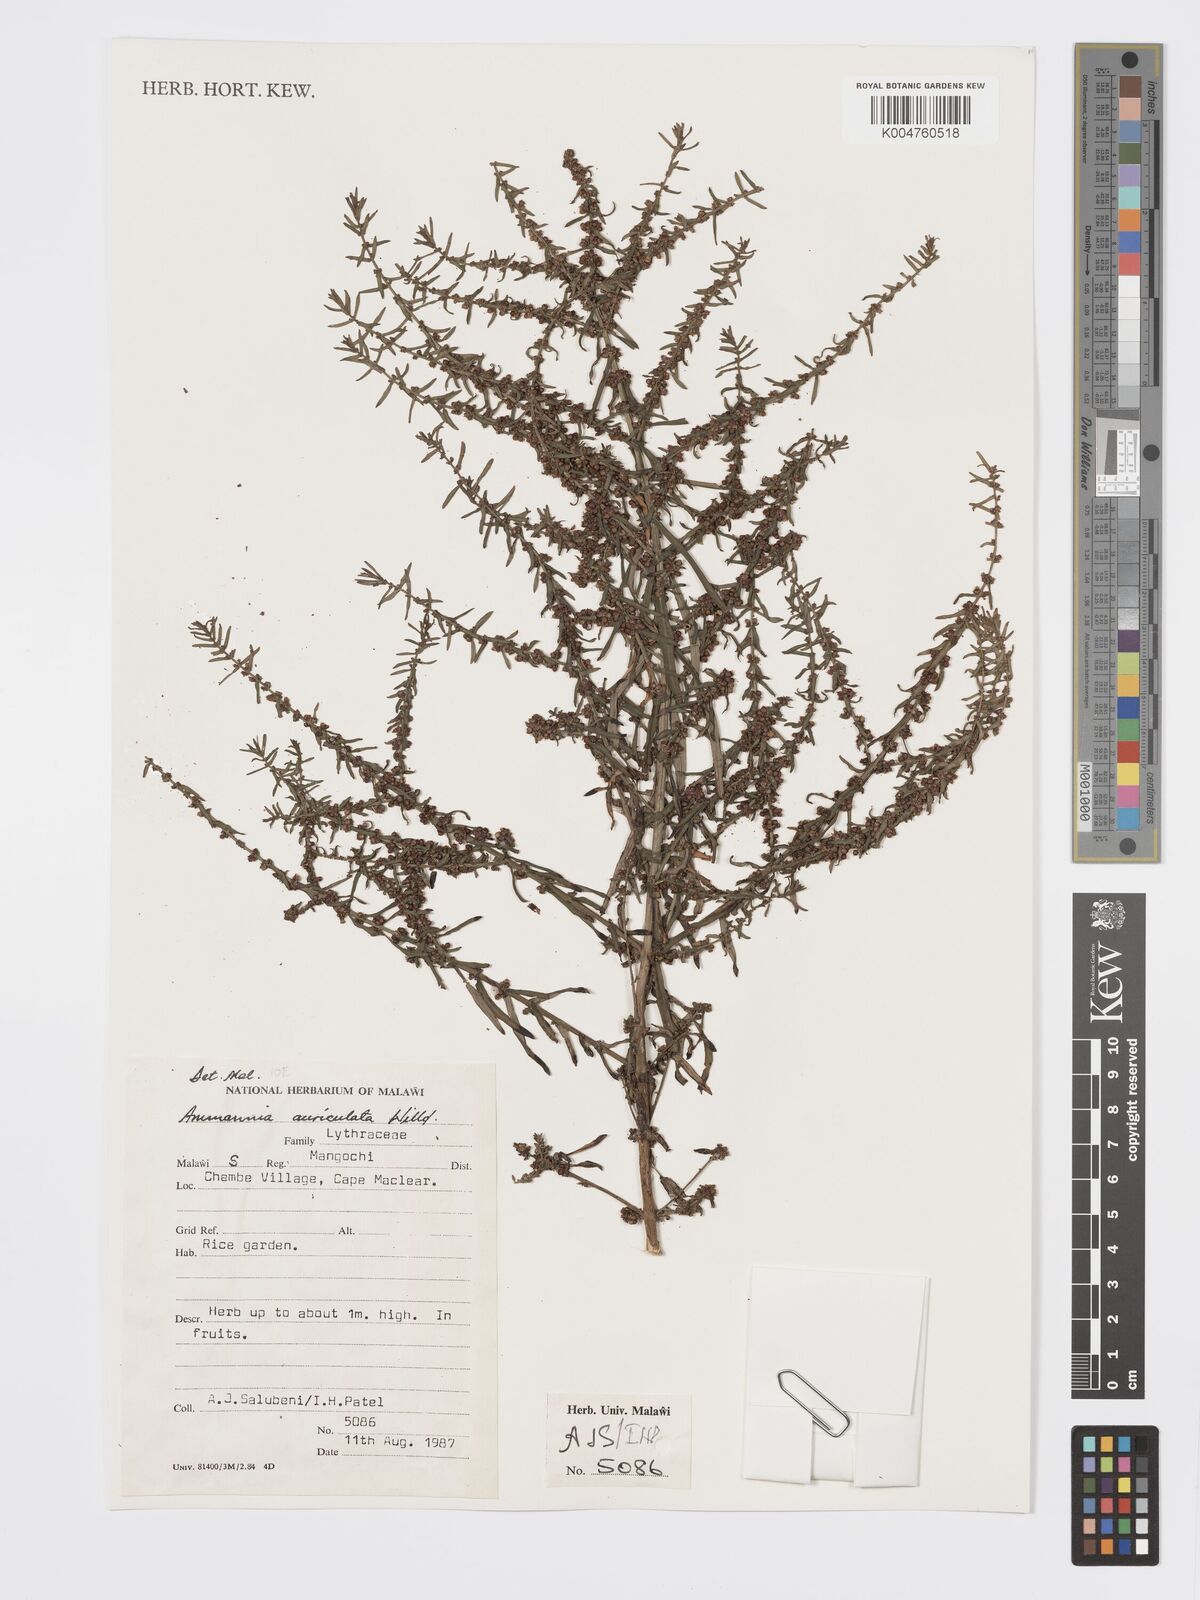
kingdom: Plantae
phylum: Tracheophyta
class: Magnoliopsida
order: Myrtales
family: Lythraceae
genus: Ammannia
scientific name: Ammannia auriculata
